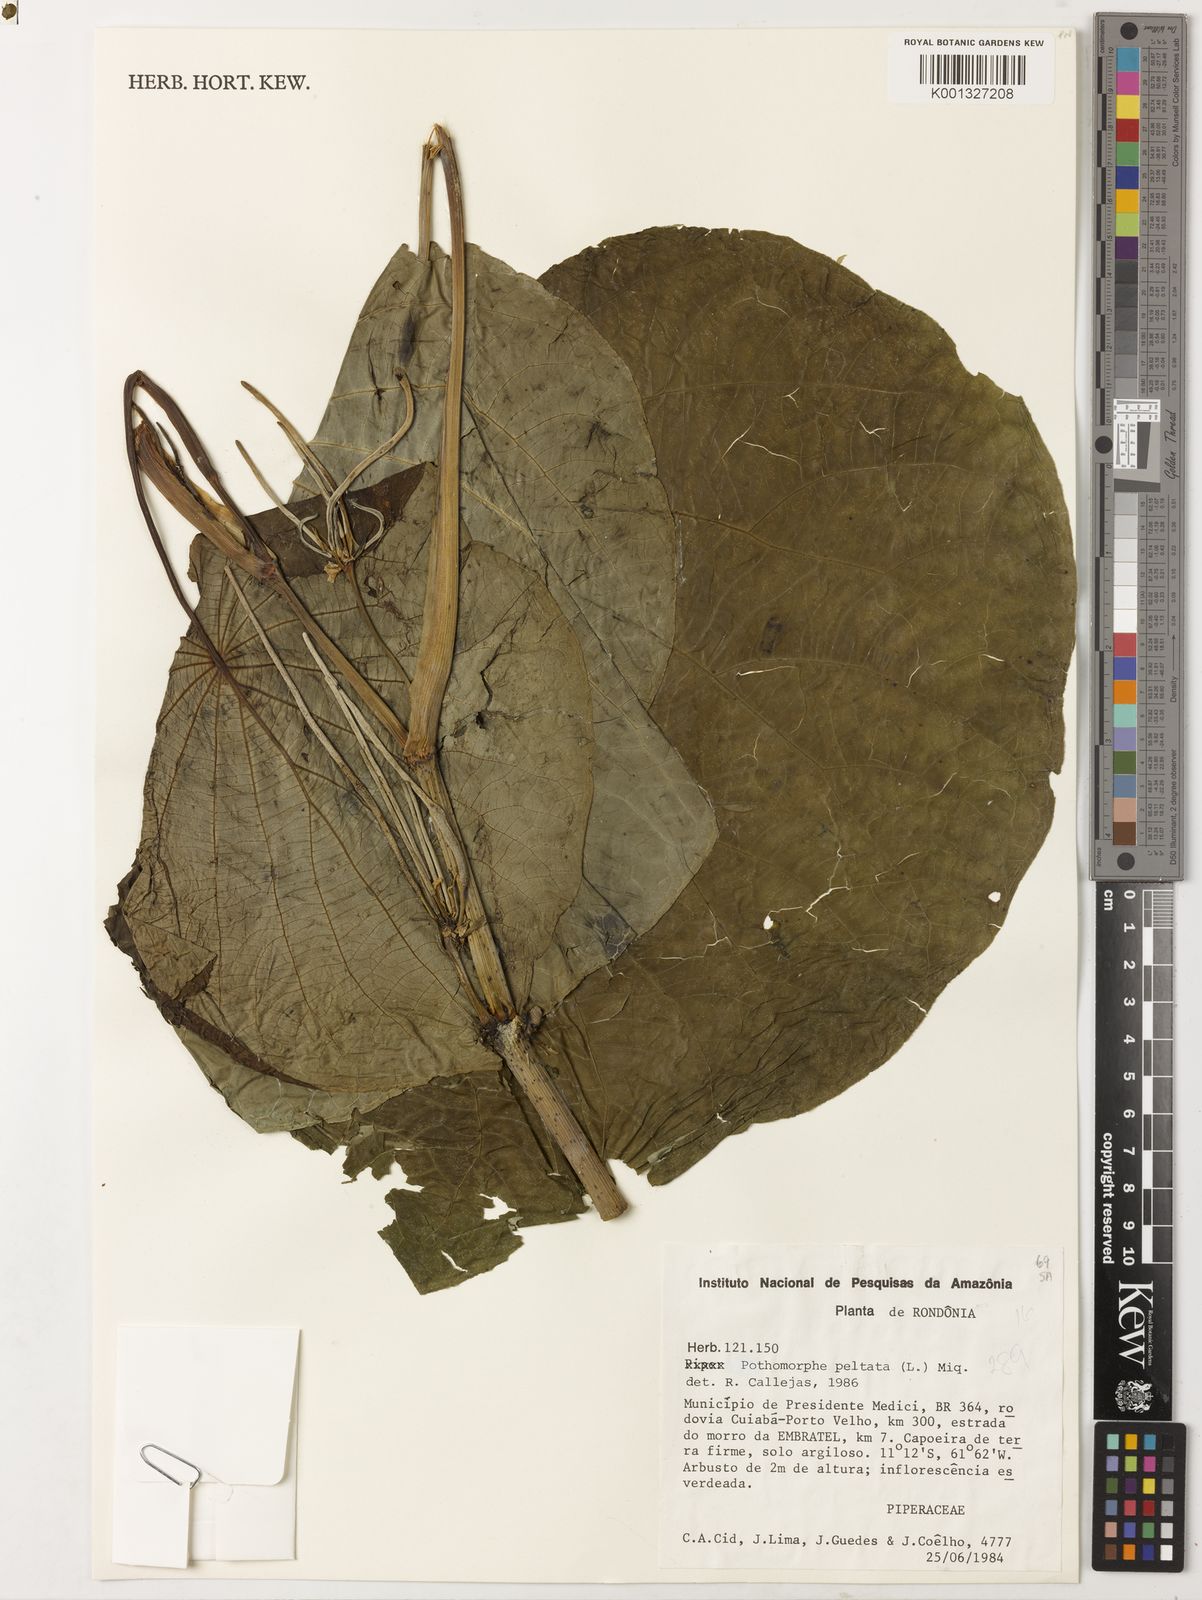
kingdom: Plantae
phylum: Tracheophyta
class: Magnoliopsida
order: Piperales
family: Piperaceae
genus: Piper
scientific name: Piper peltatum
